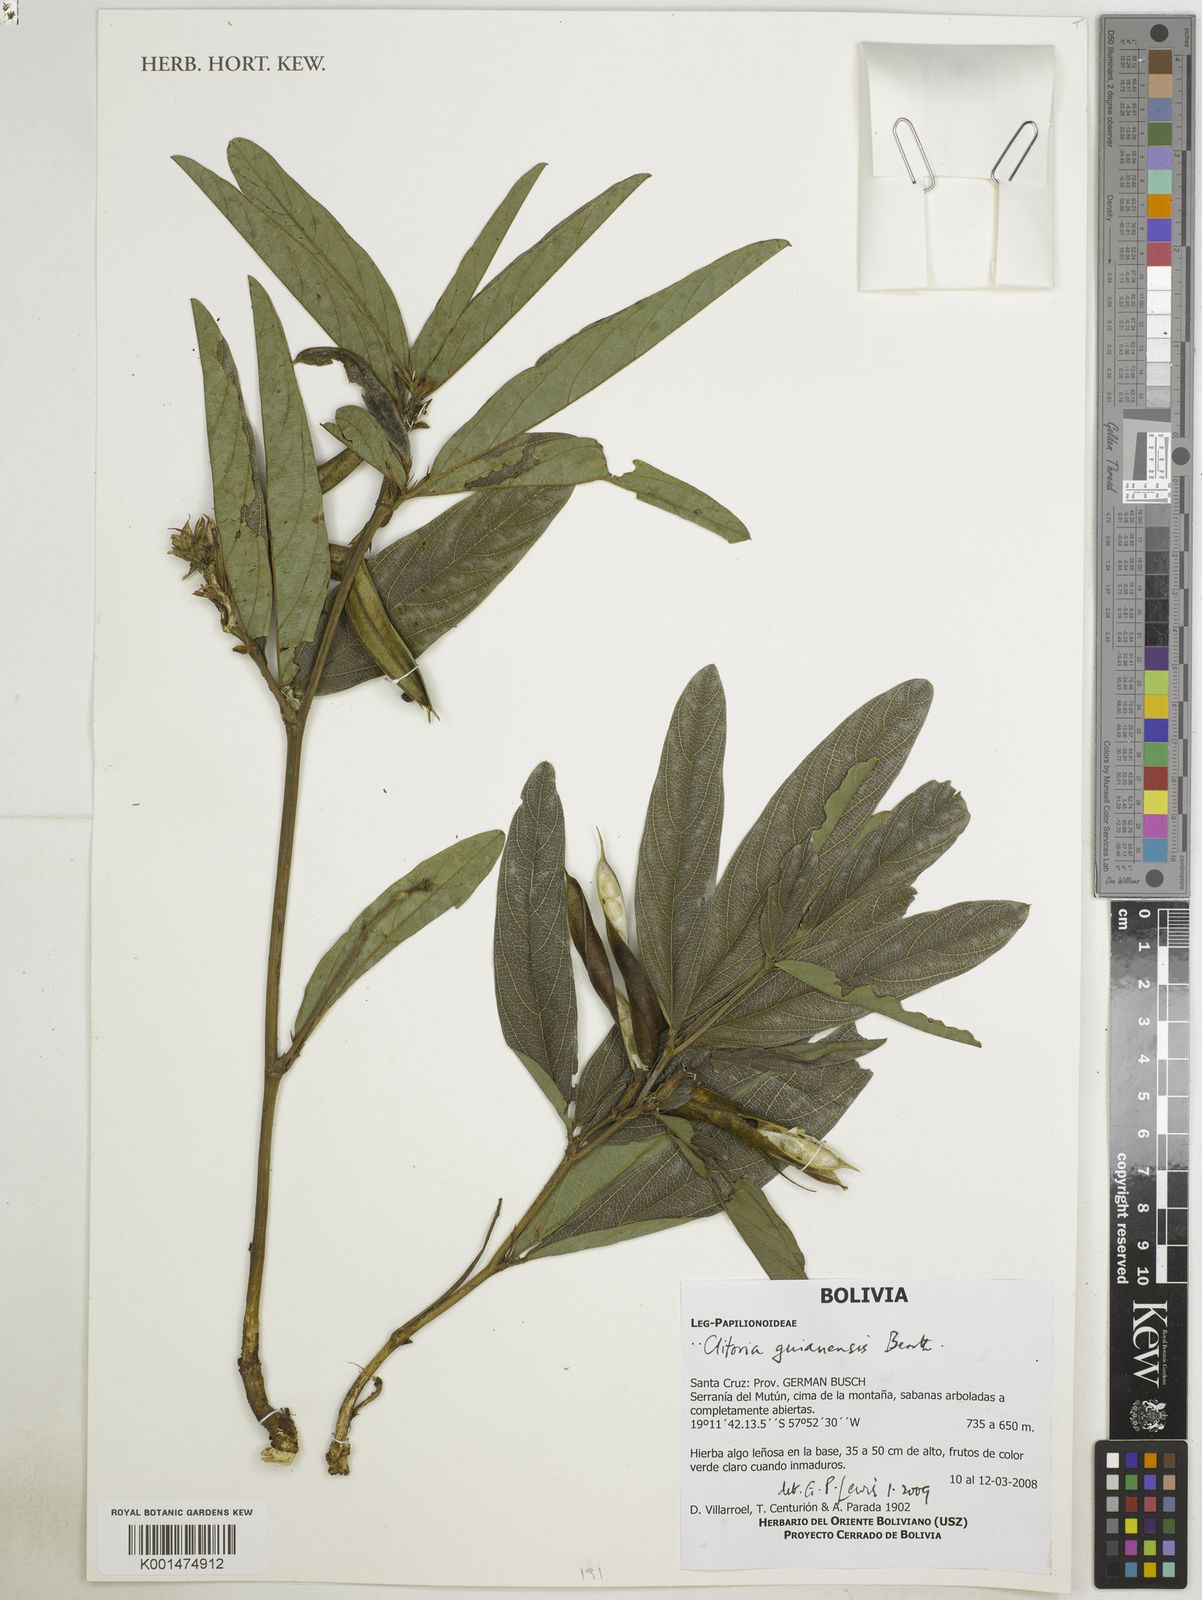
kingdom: Plantae
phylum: Tracheophyta
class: Magnoliopsida
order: Fabales
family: Fabaceae
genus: Clitoria
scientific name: Clitoria guianensis
